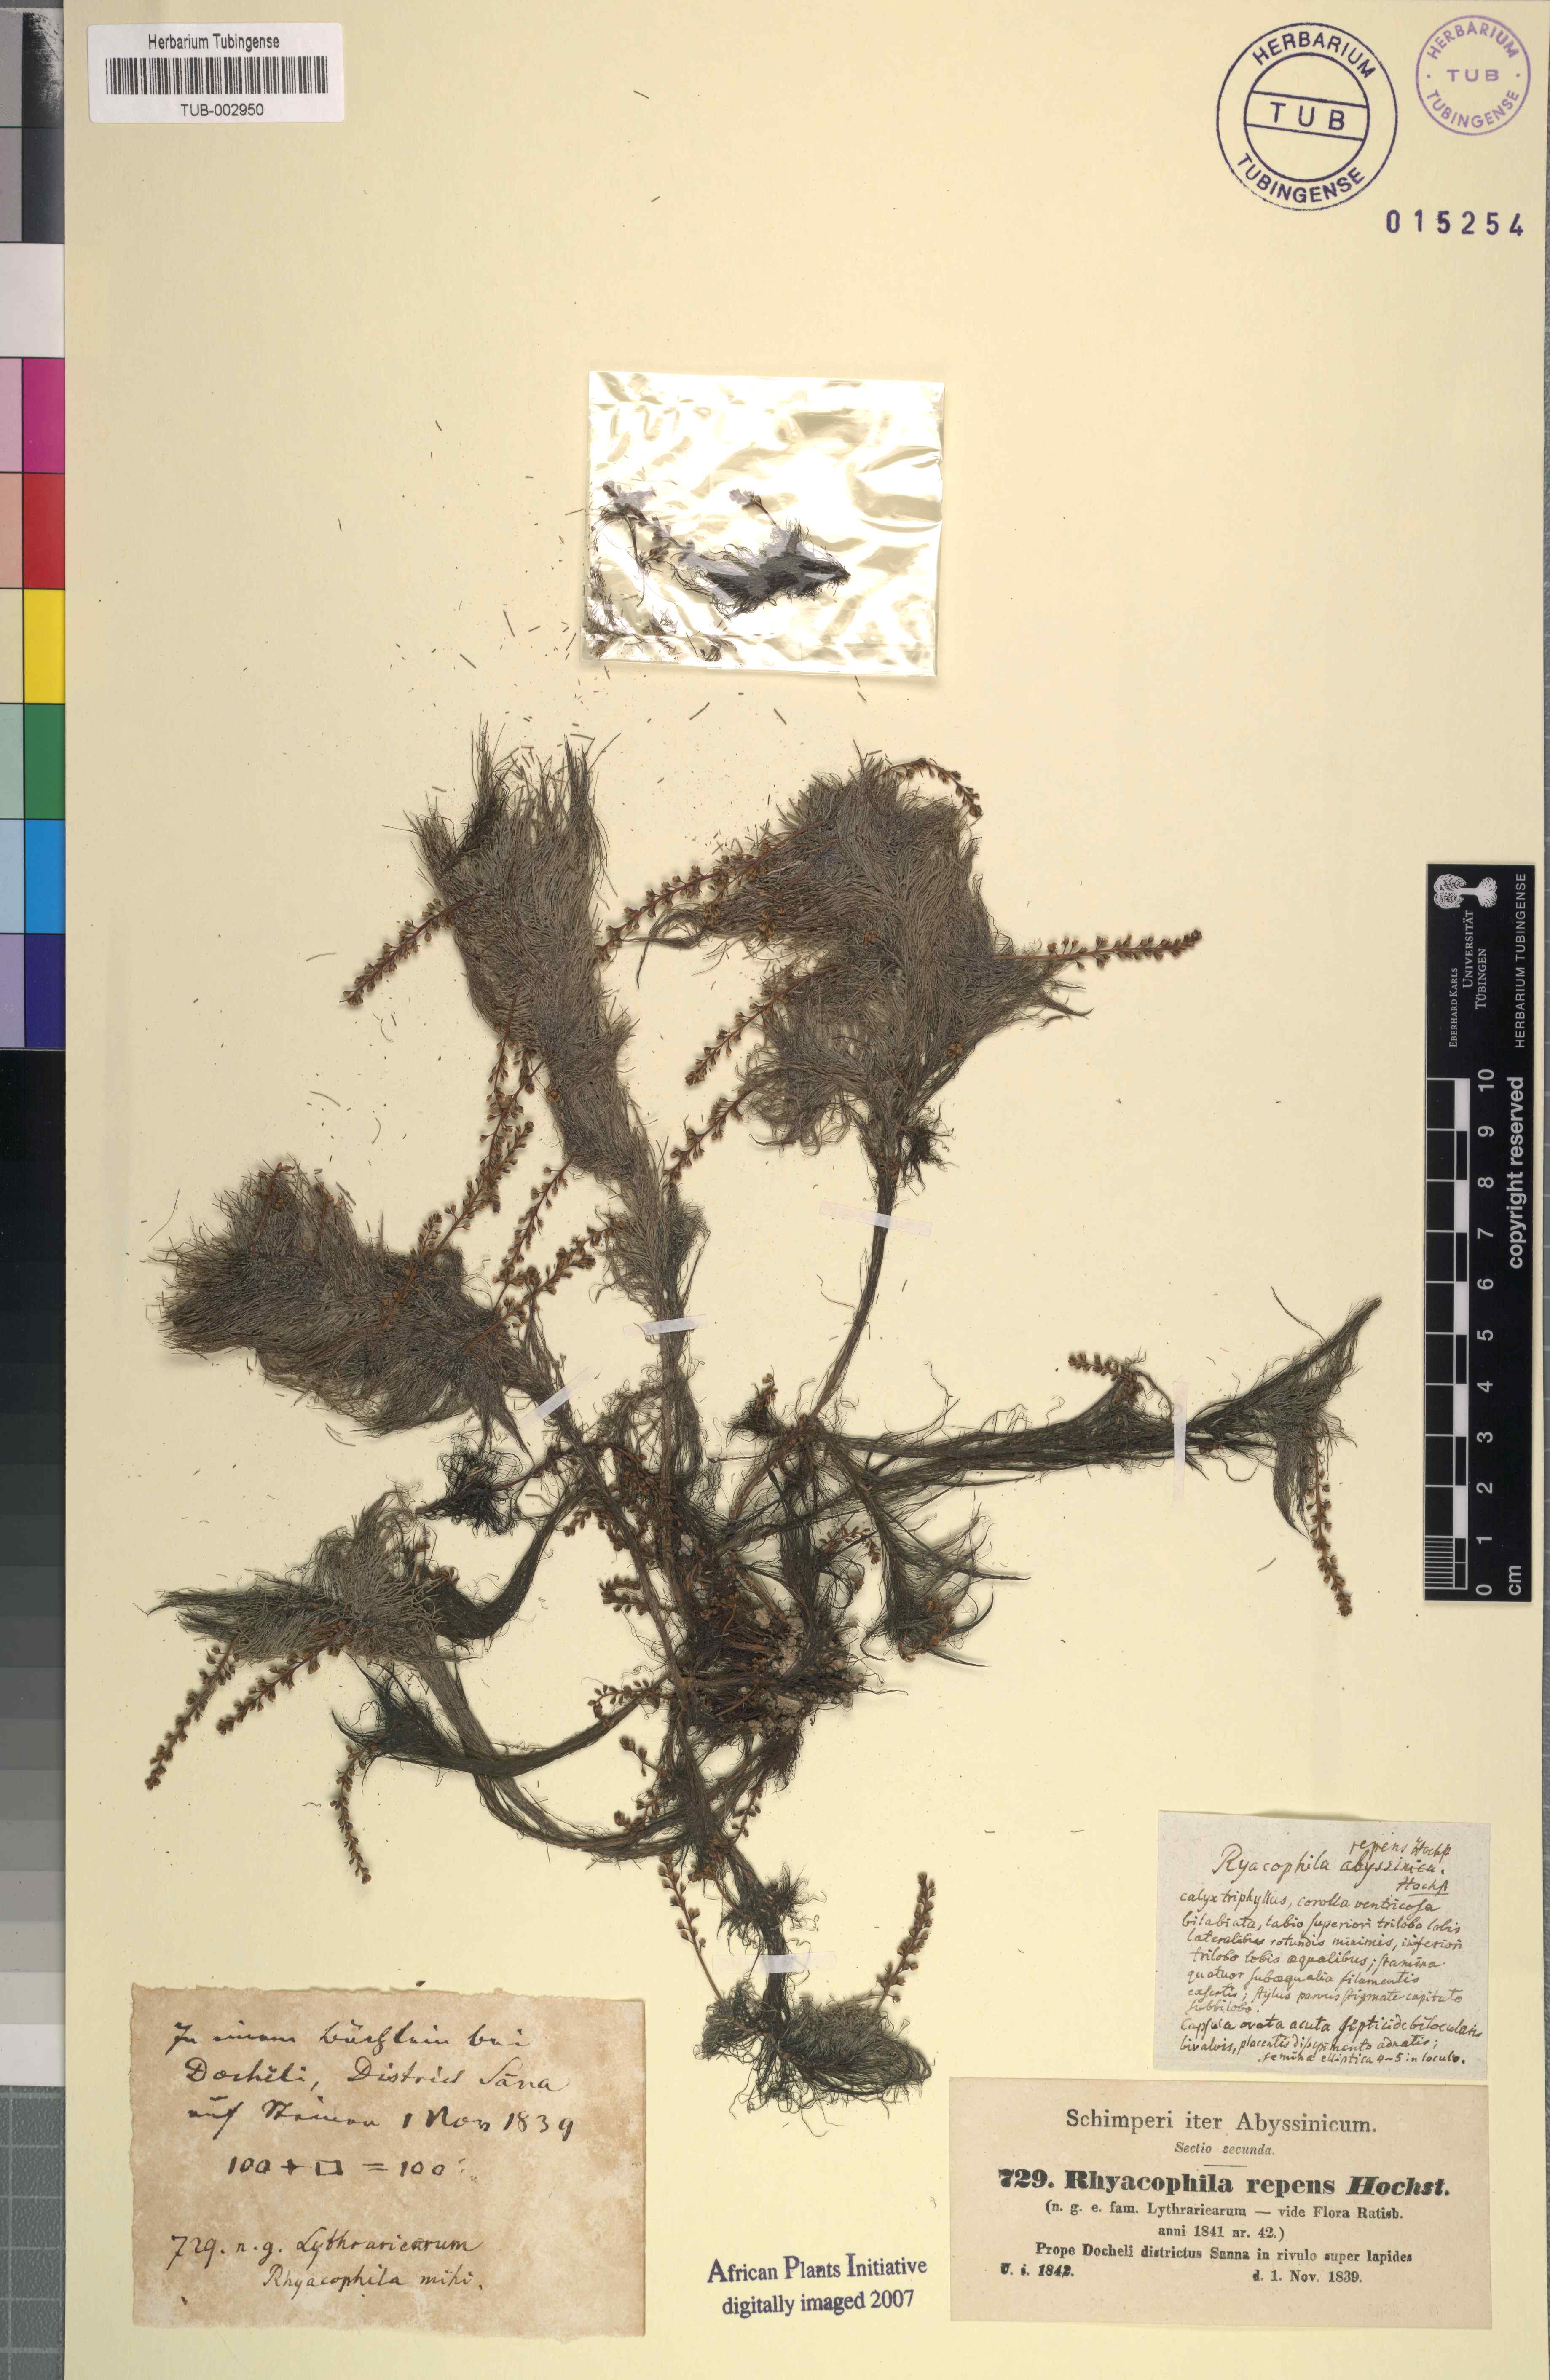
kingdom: Plantae
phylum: Tracheophyta
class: Magnoliopsida
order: Myrtales
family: Lythraceae
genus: Rotala
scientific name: Rotala repens
